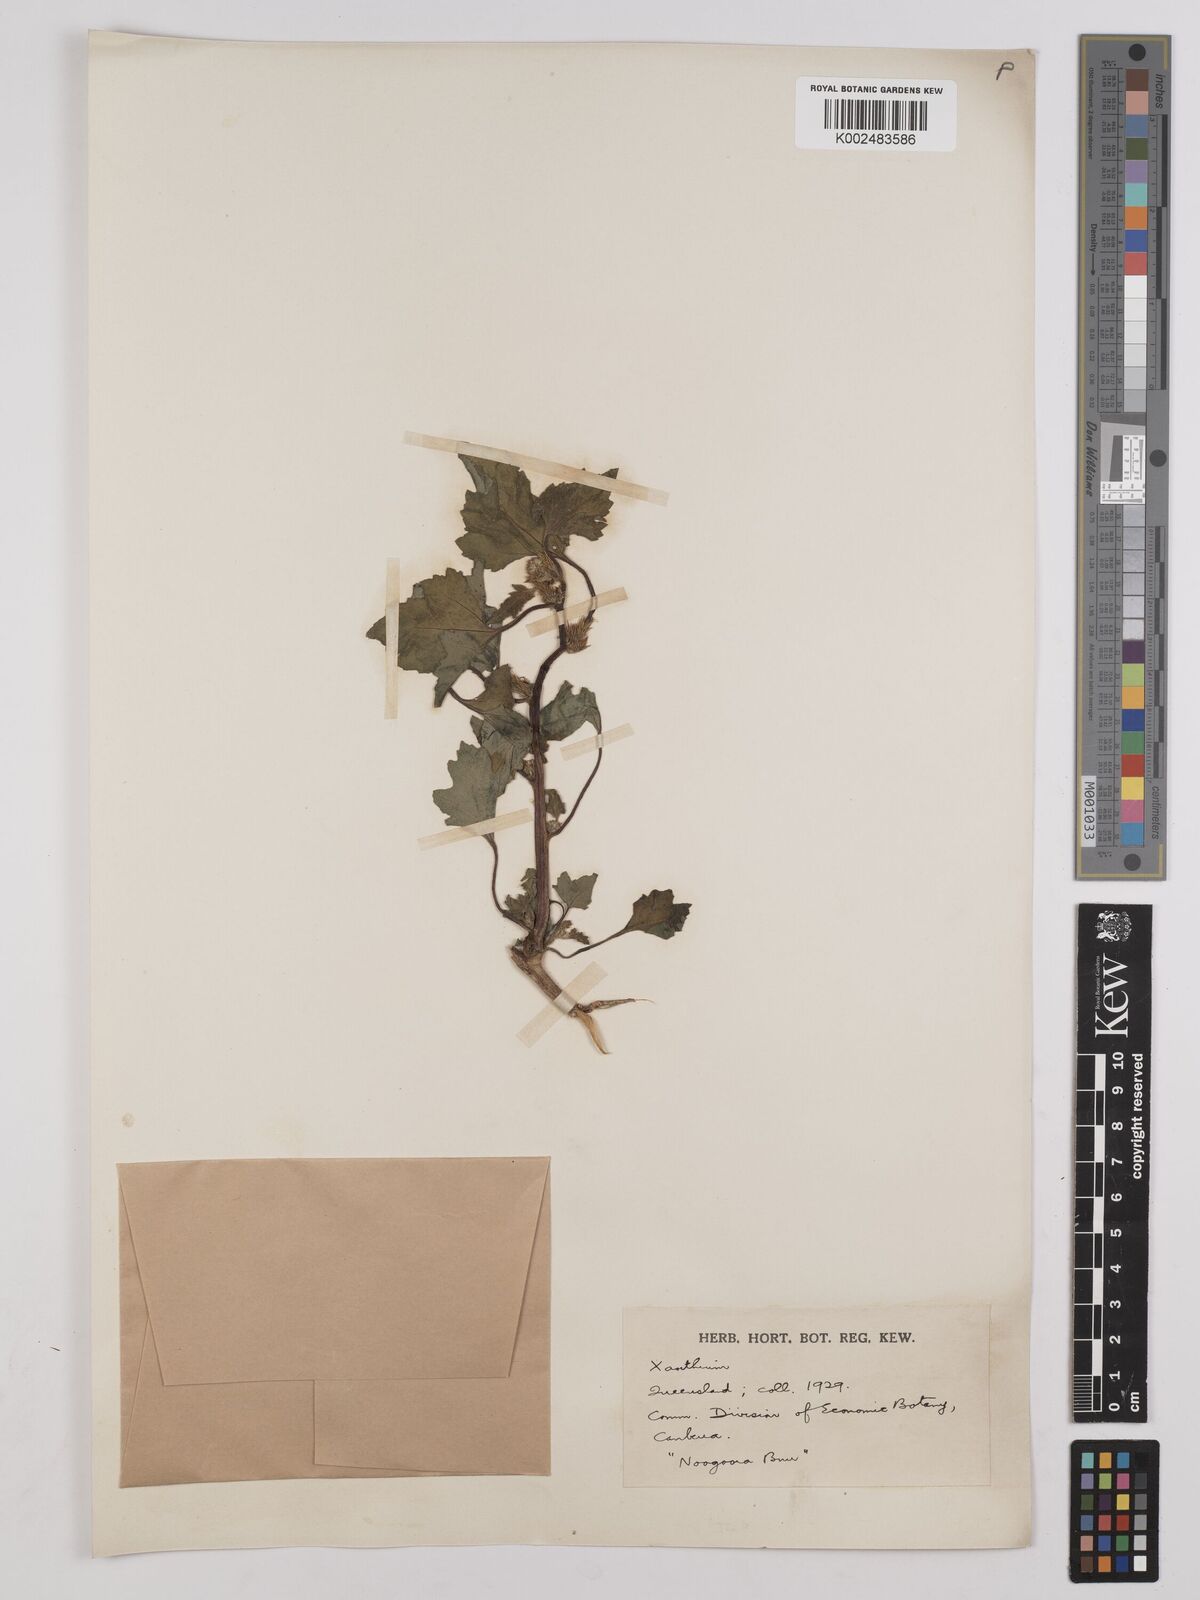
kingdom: Plantae
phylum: Tracheophyta
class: Magnoliopsida
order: Asterales
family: Asteraceae
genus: Xanthium
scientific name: Xanthium occidentale
